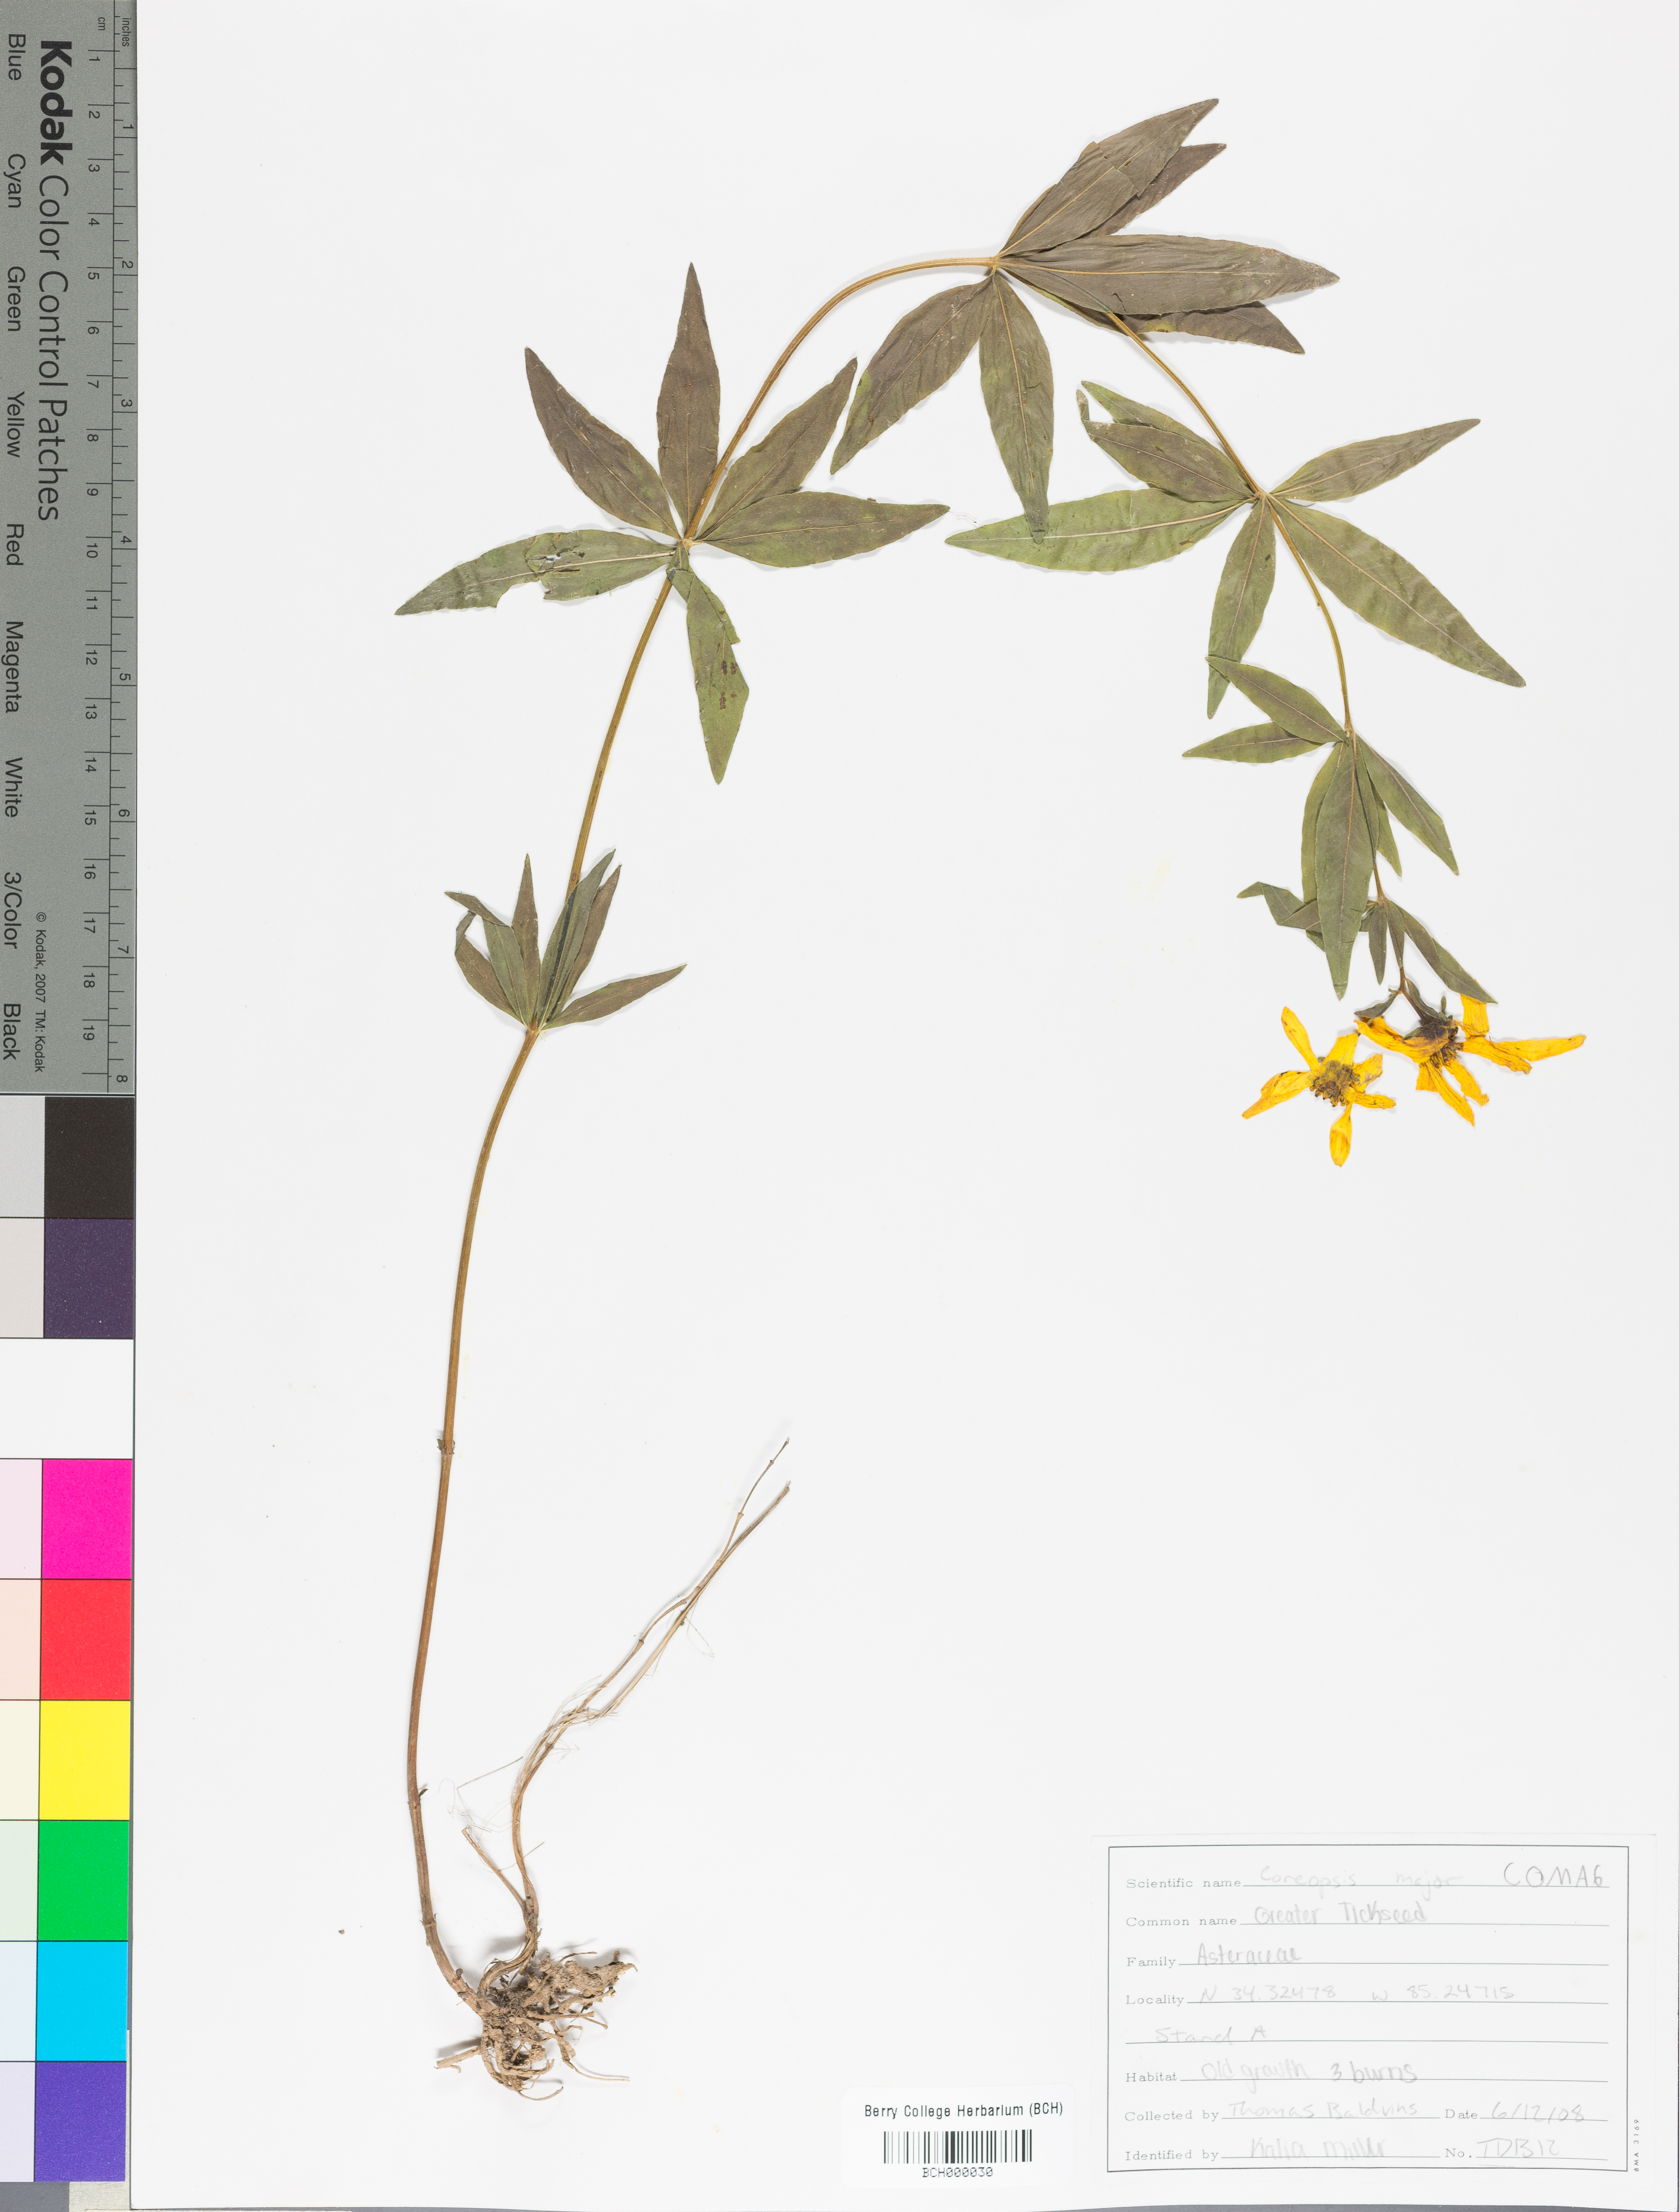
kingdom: Plantae
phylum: Tracheophyta
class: Magnoliopsida
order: Asterales
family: Asteraceae
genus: Coreopsis
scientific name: Coreopsis major
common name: Forest tickseed
